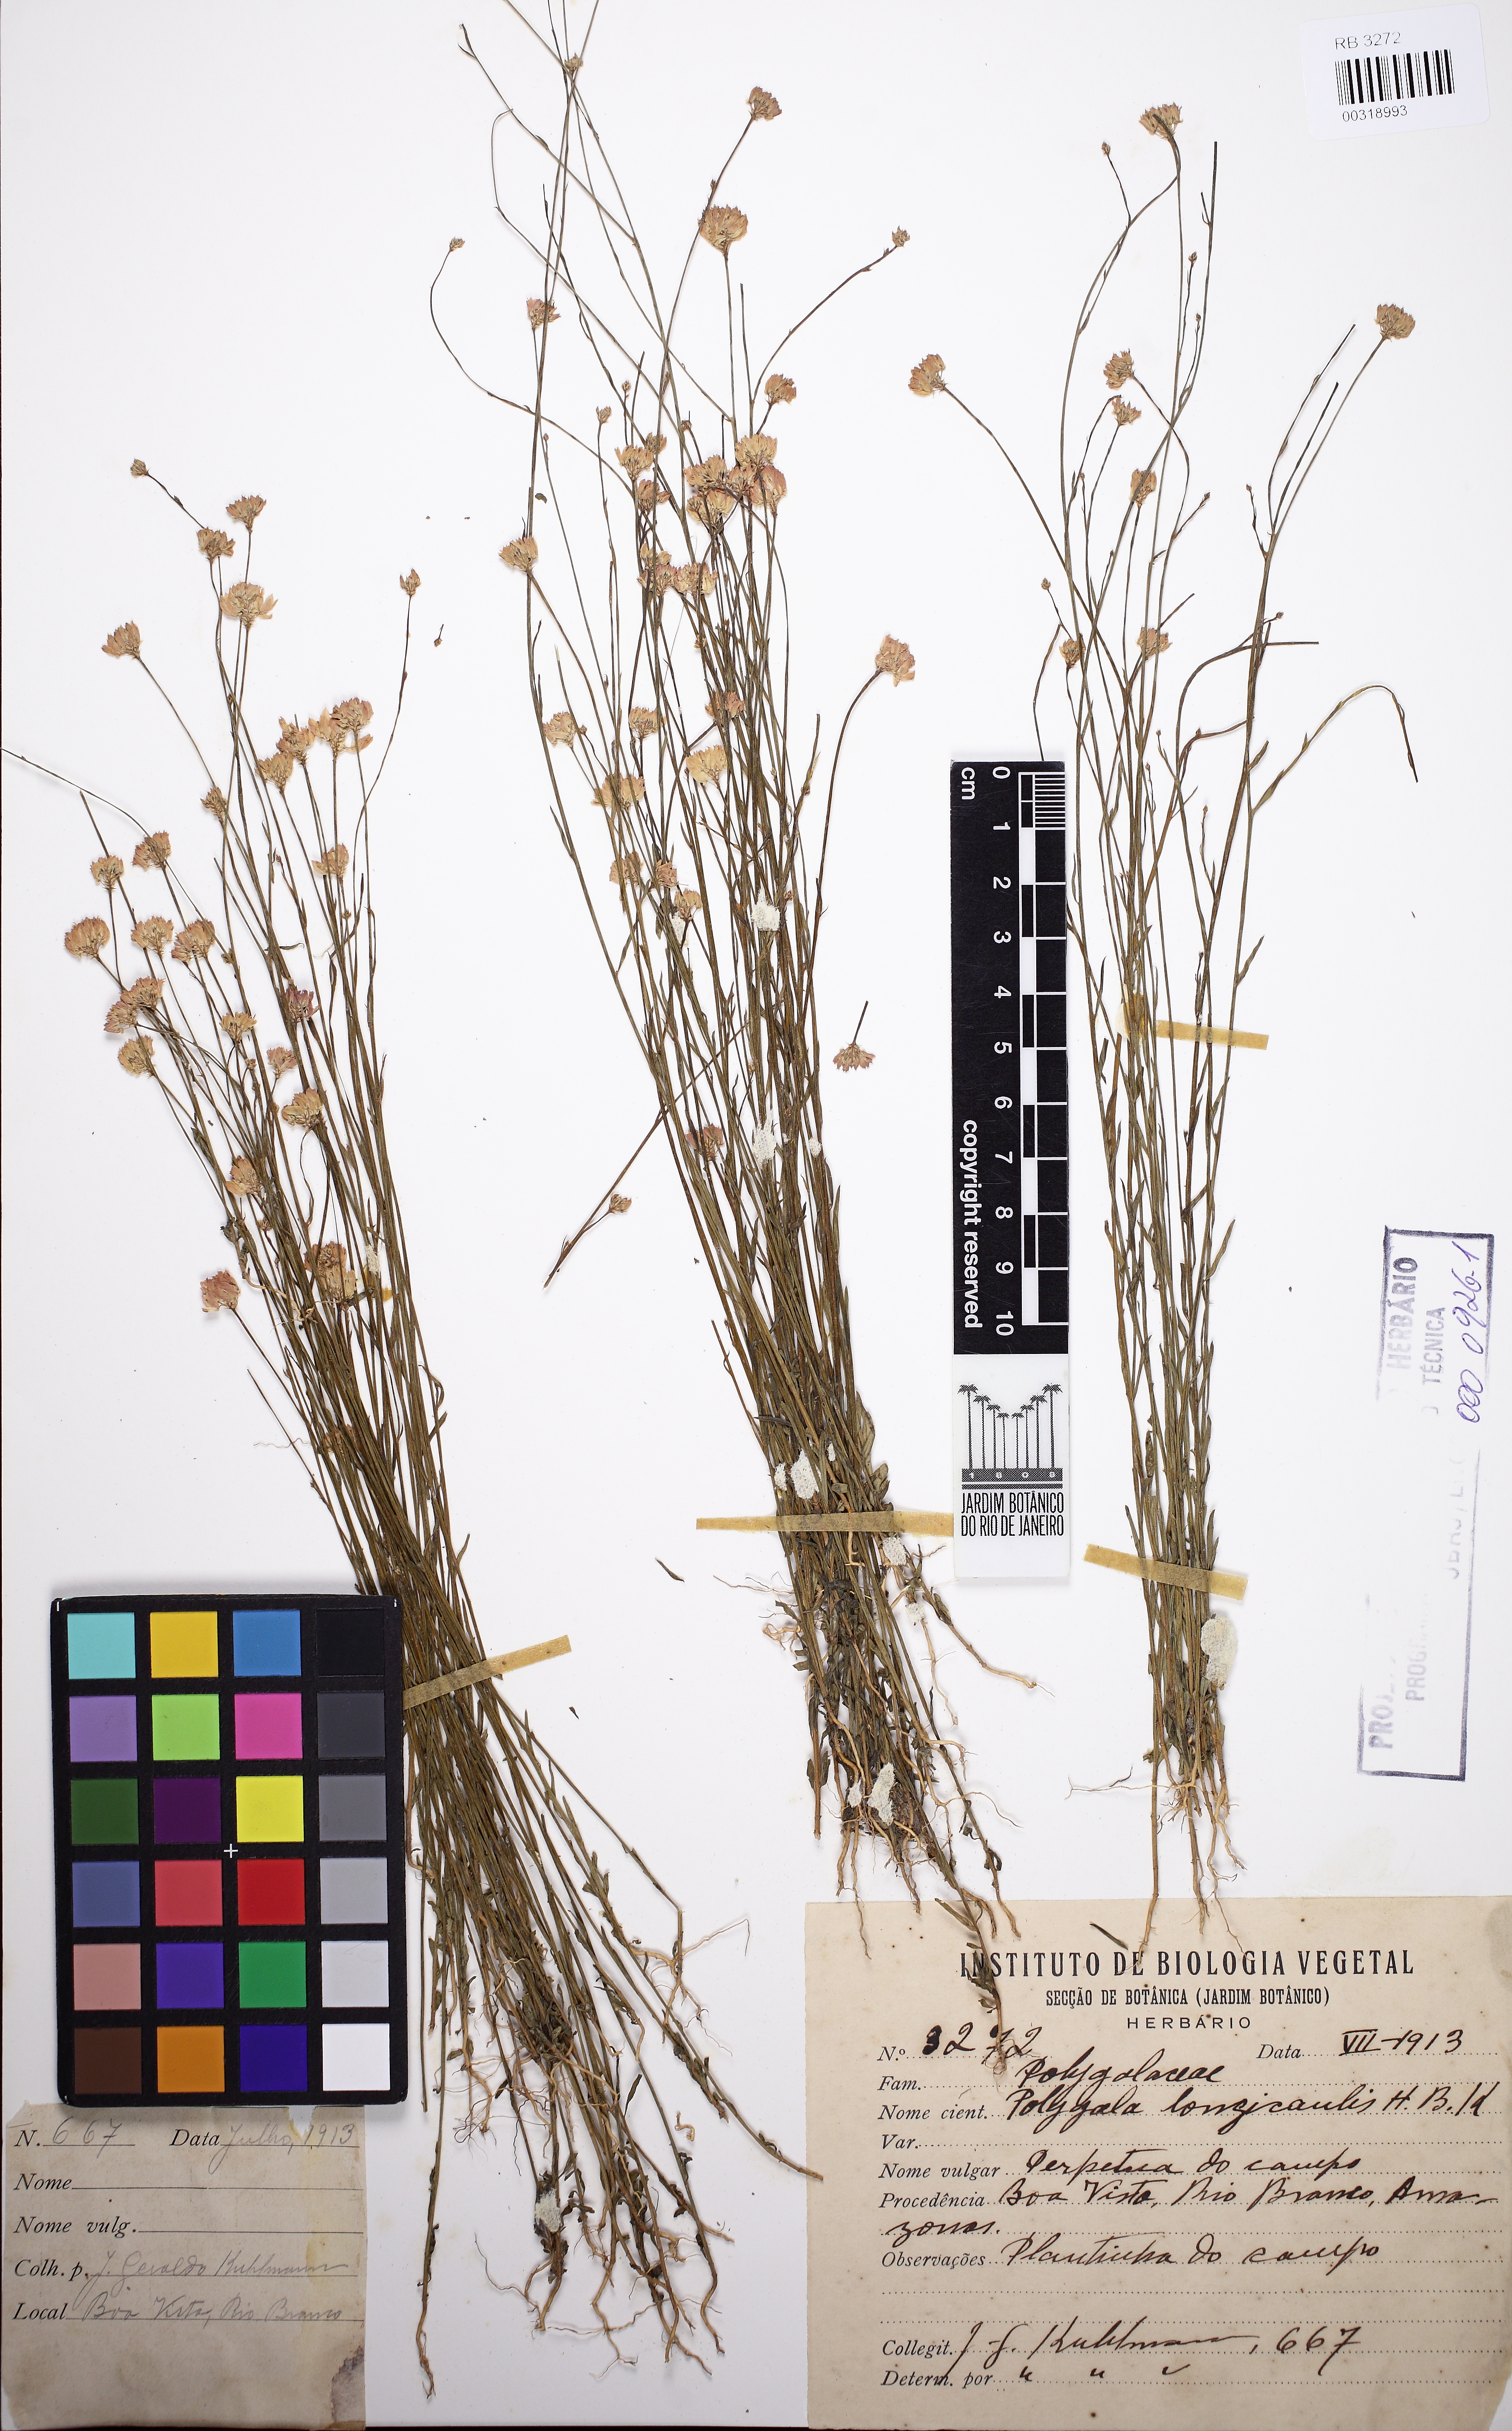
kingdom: Plantae
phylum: Tracheophyta
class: Magnoliopsida
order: Fabales
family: Polygalaceae
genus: Polygala
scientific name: Polygala longicaulis
